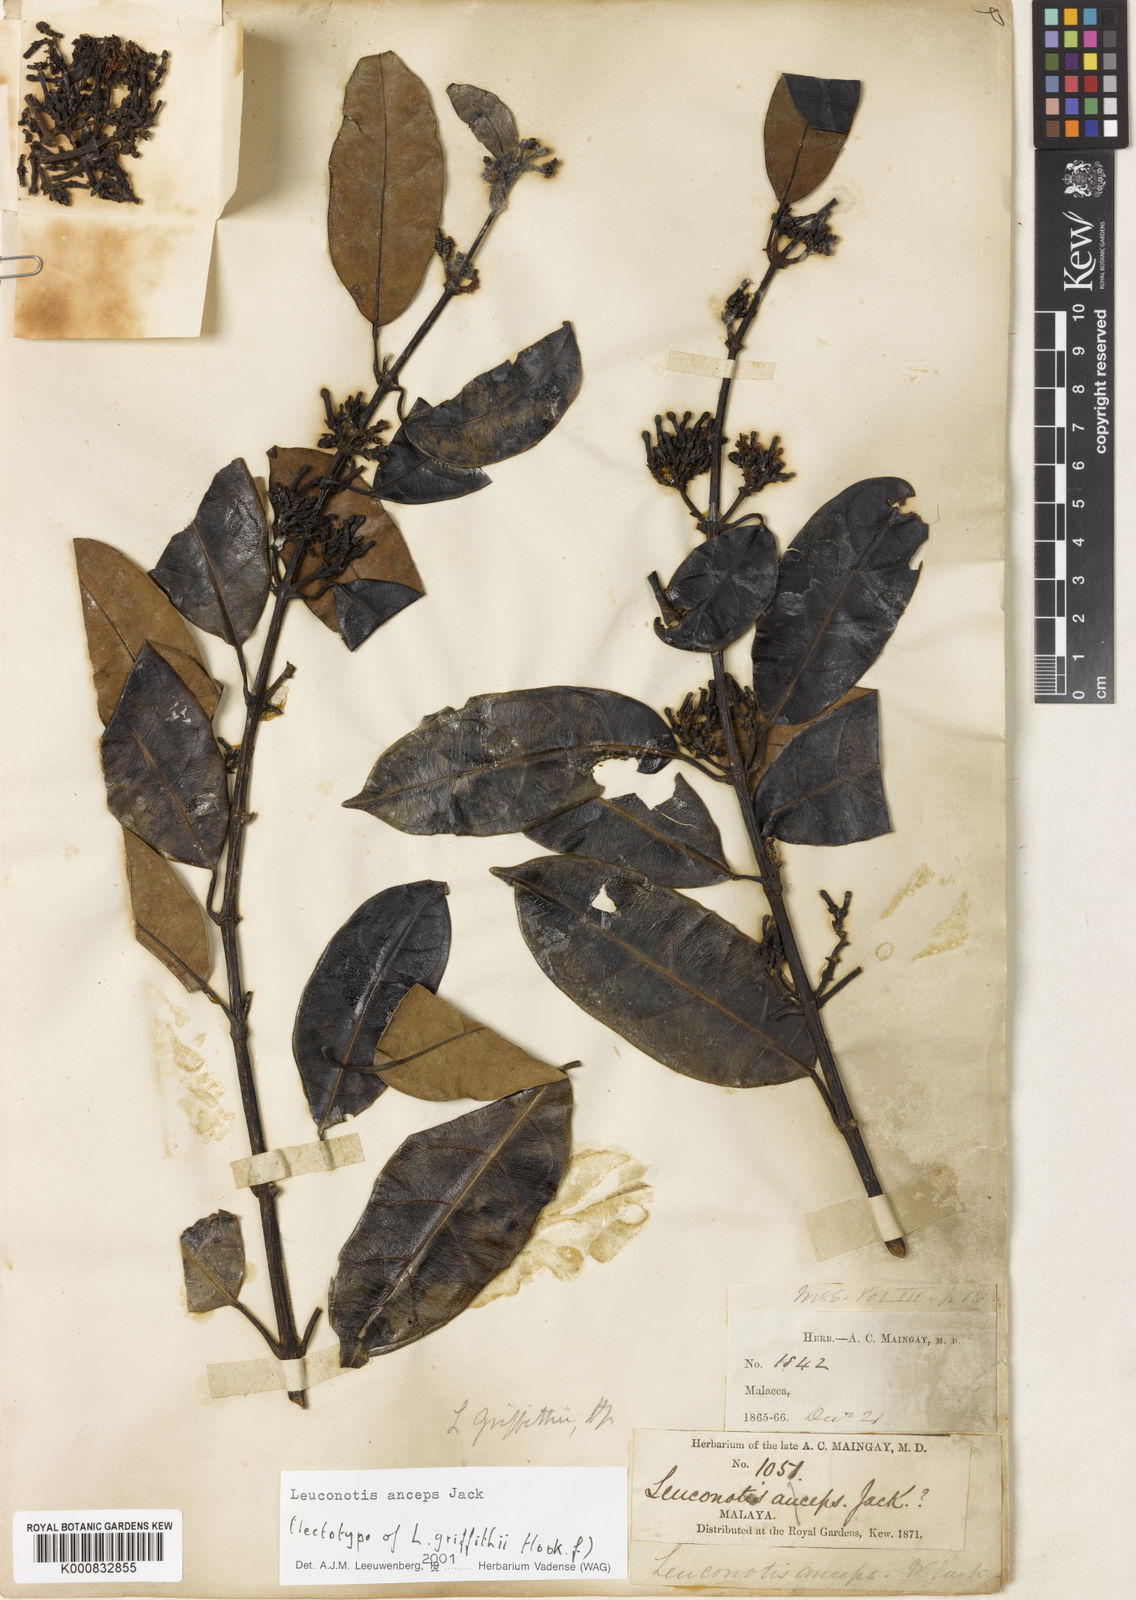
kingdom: Plantae
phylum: Tracheophyta
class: Magnoliopsida
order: Gentianales
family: Apocynaceae
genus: Leuconotis
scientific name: Leuconotis griffithii
